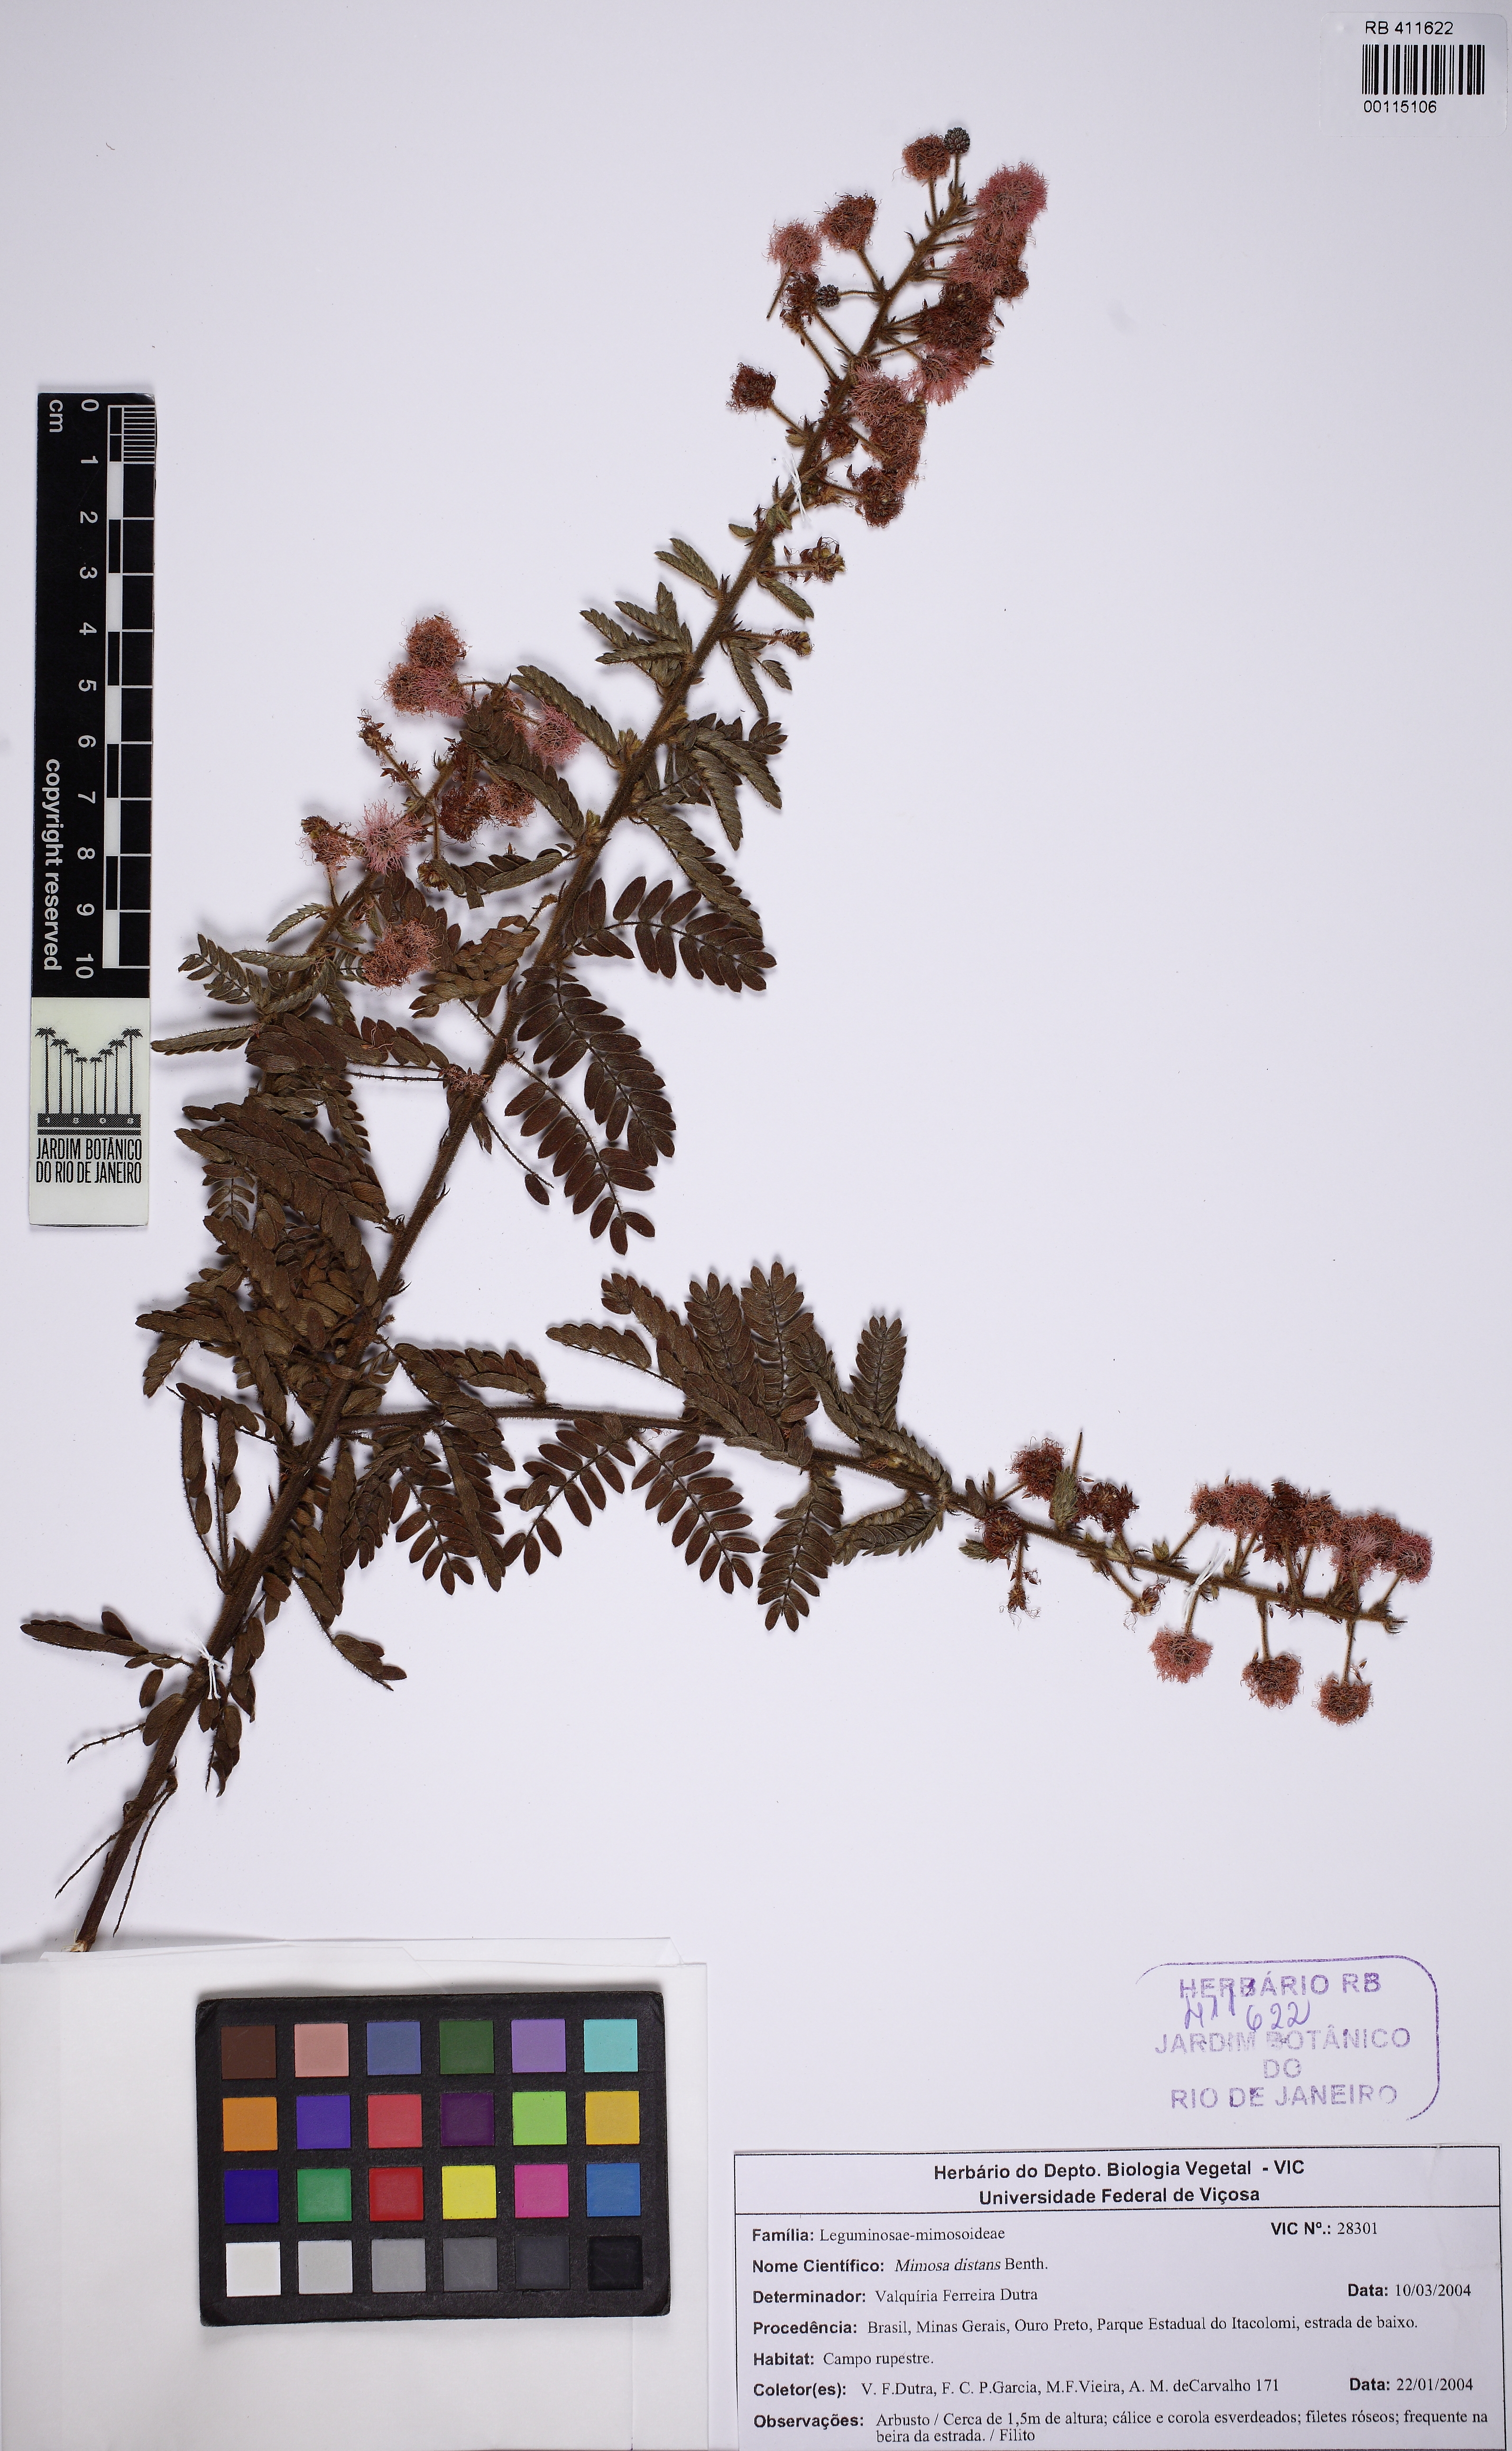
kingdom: Plantae
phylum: Tracheophyta
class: Magnoliopsida
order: Fabales
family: Fabaceae
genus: Mimosa
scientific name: Mimosa montis-carasae
